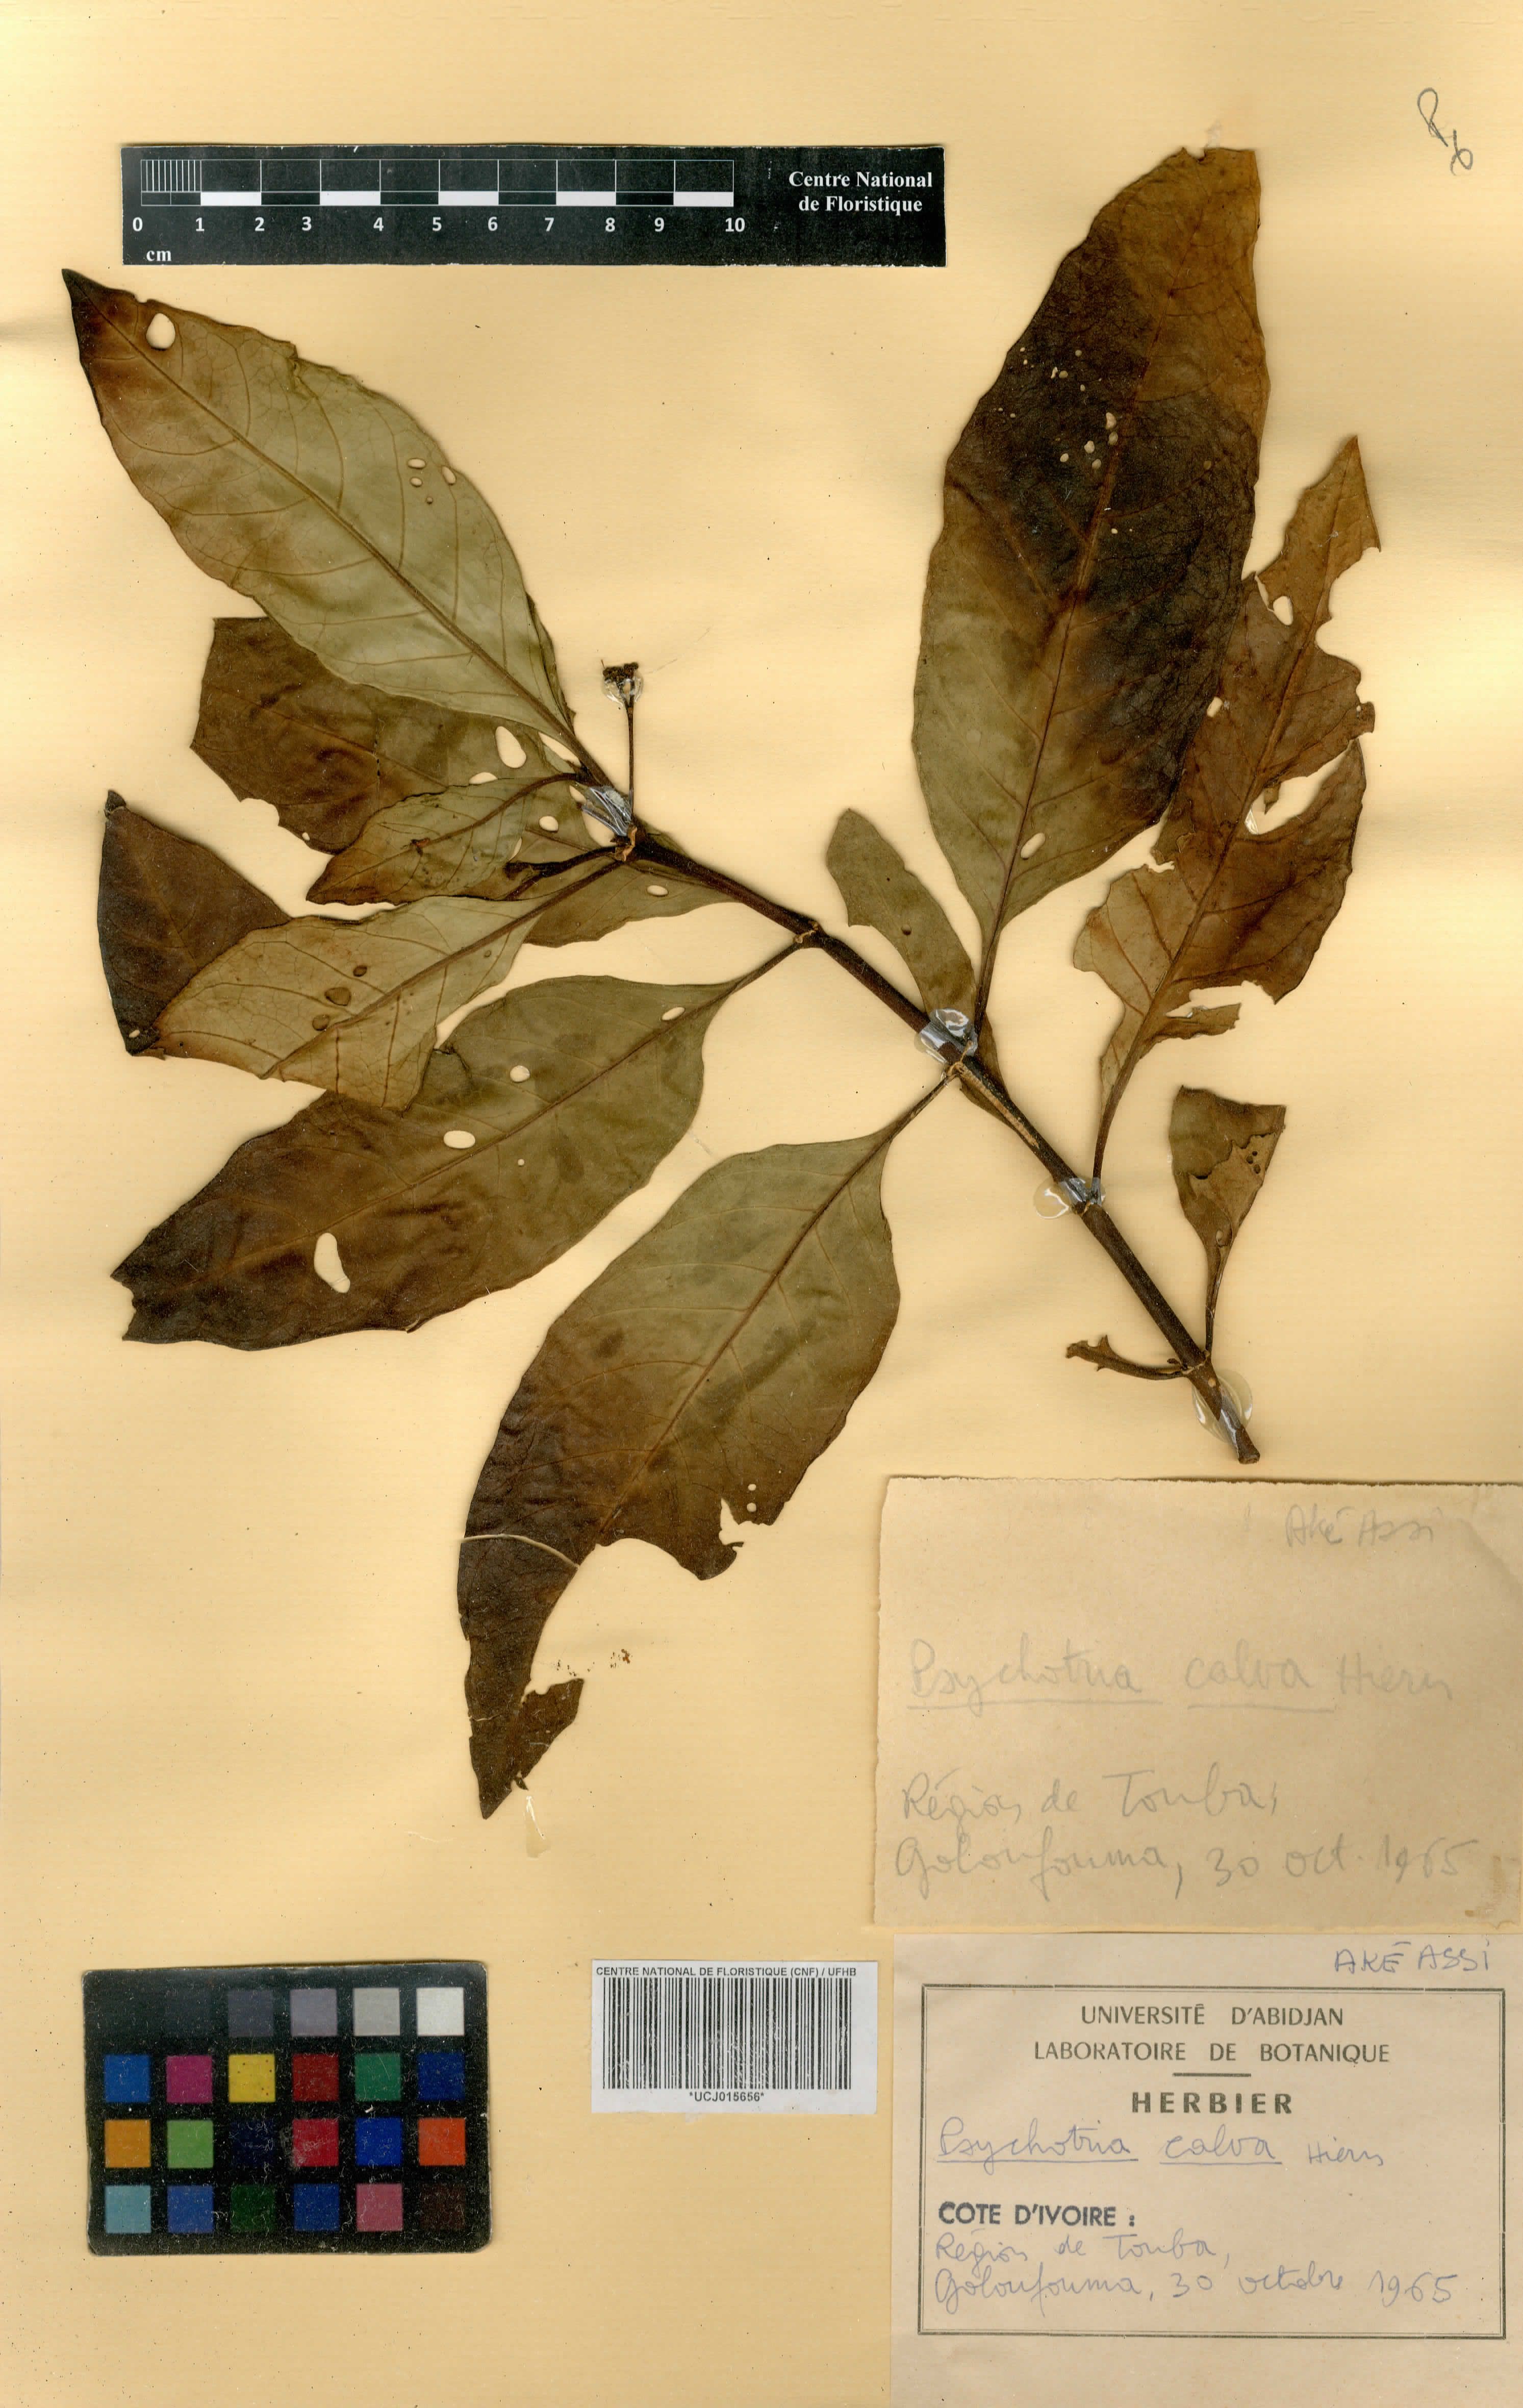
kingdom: Plantae
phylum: Tracheophyta
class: Magnoliopsida
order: Gentianales
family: Rubiaceae
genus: Psychotria
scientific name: Psychotria calva
